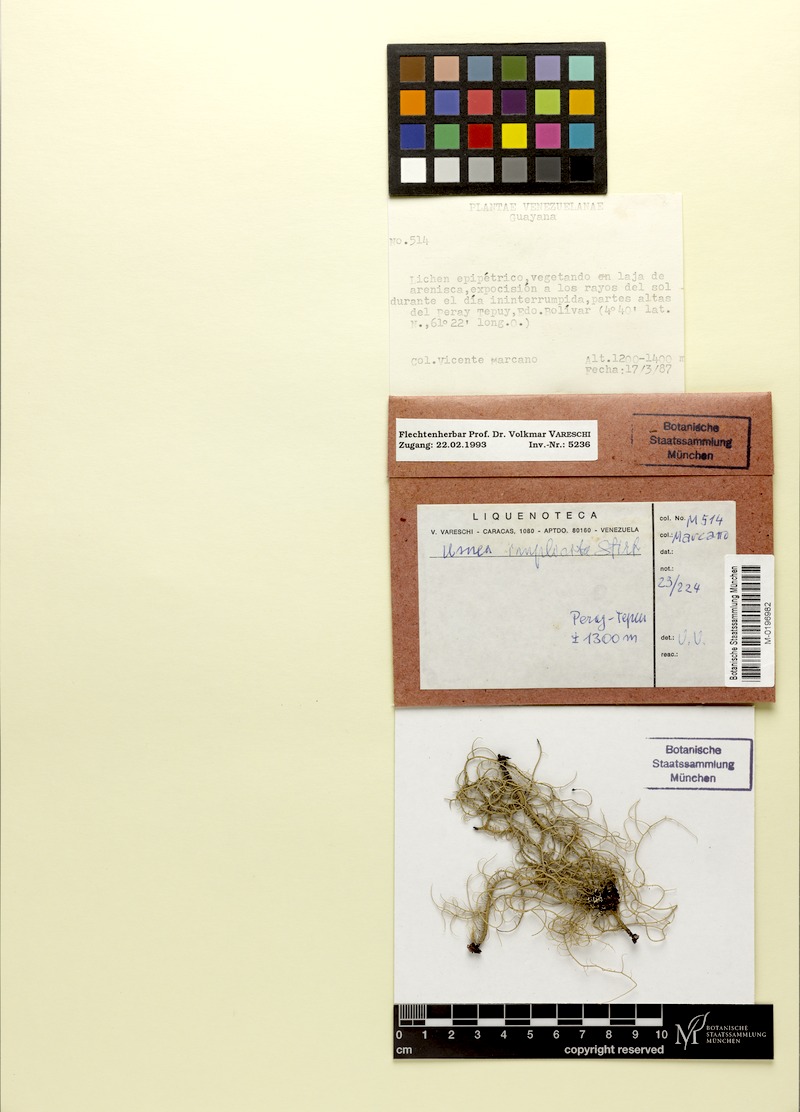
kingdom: Fungi
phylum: Ascomycota
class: Lecanoromycetes
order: Lecanorales
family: Parmeliaceae
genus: Eumitria
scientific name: Eumitria baileyi
